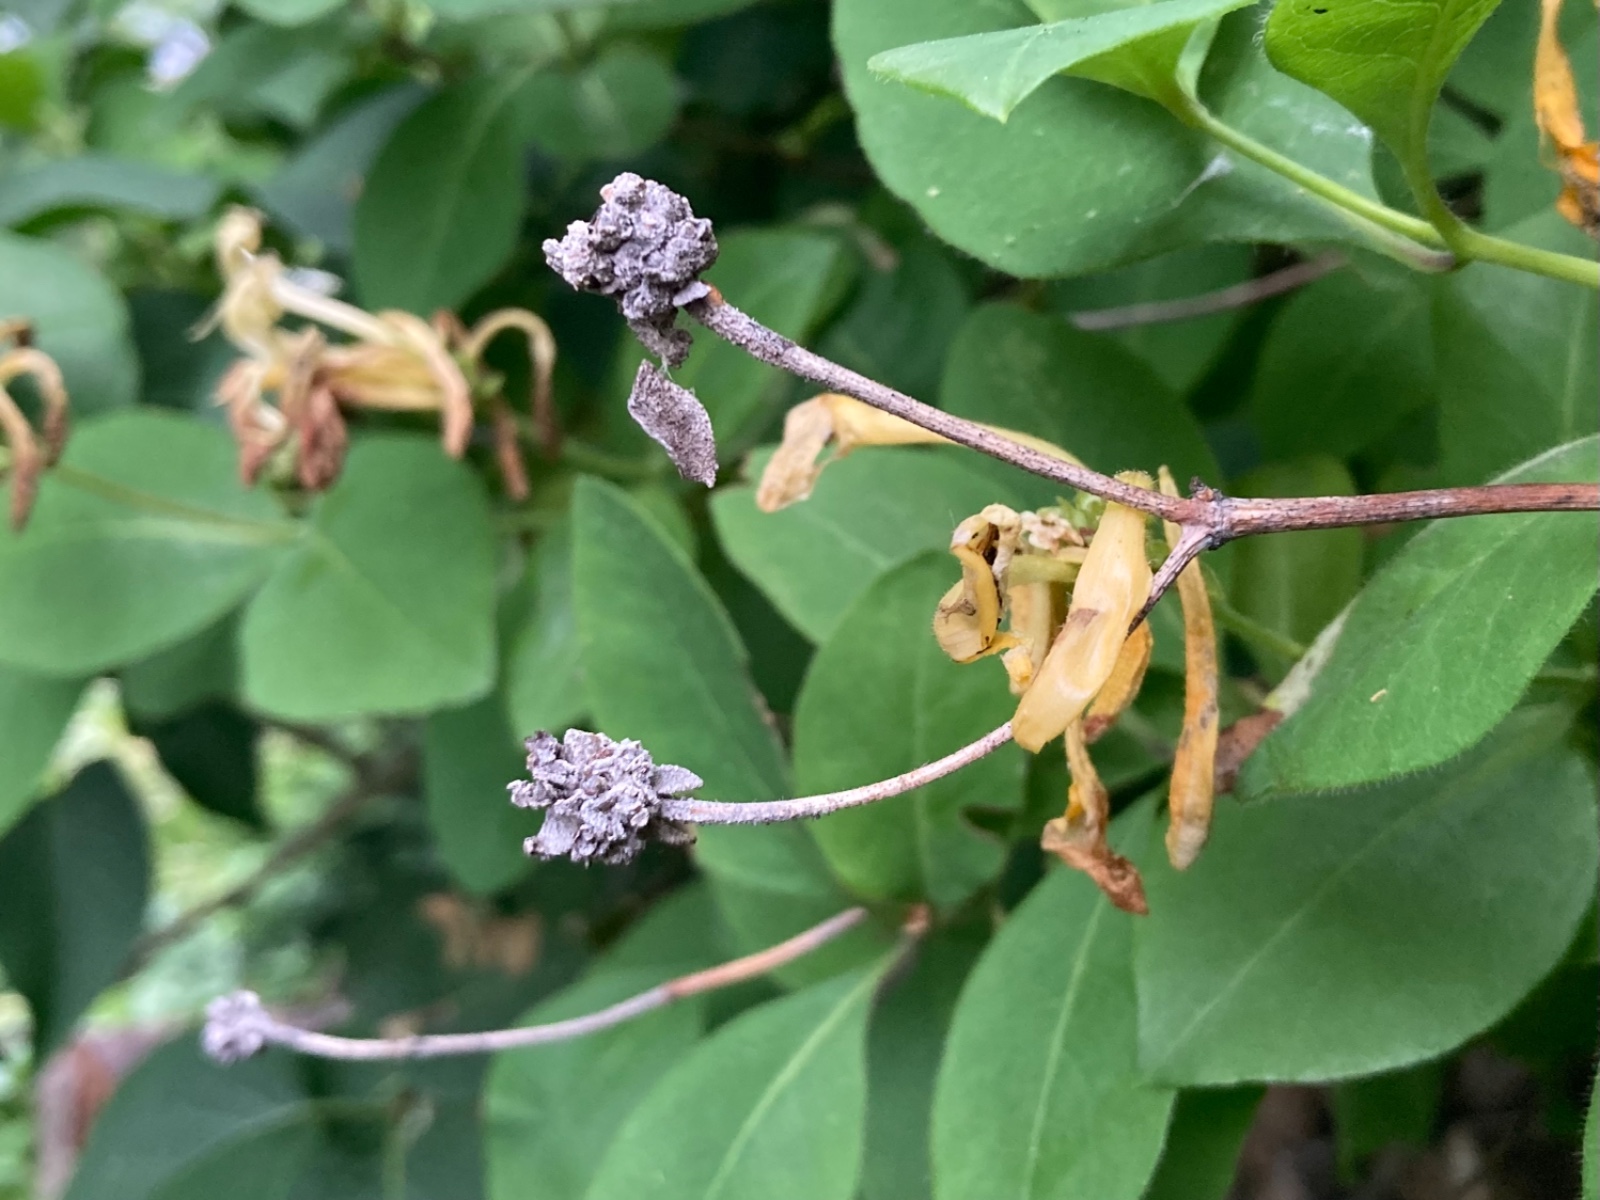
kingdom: Fungi
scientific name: Fungi
